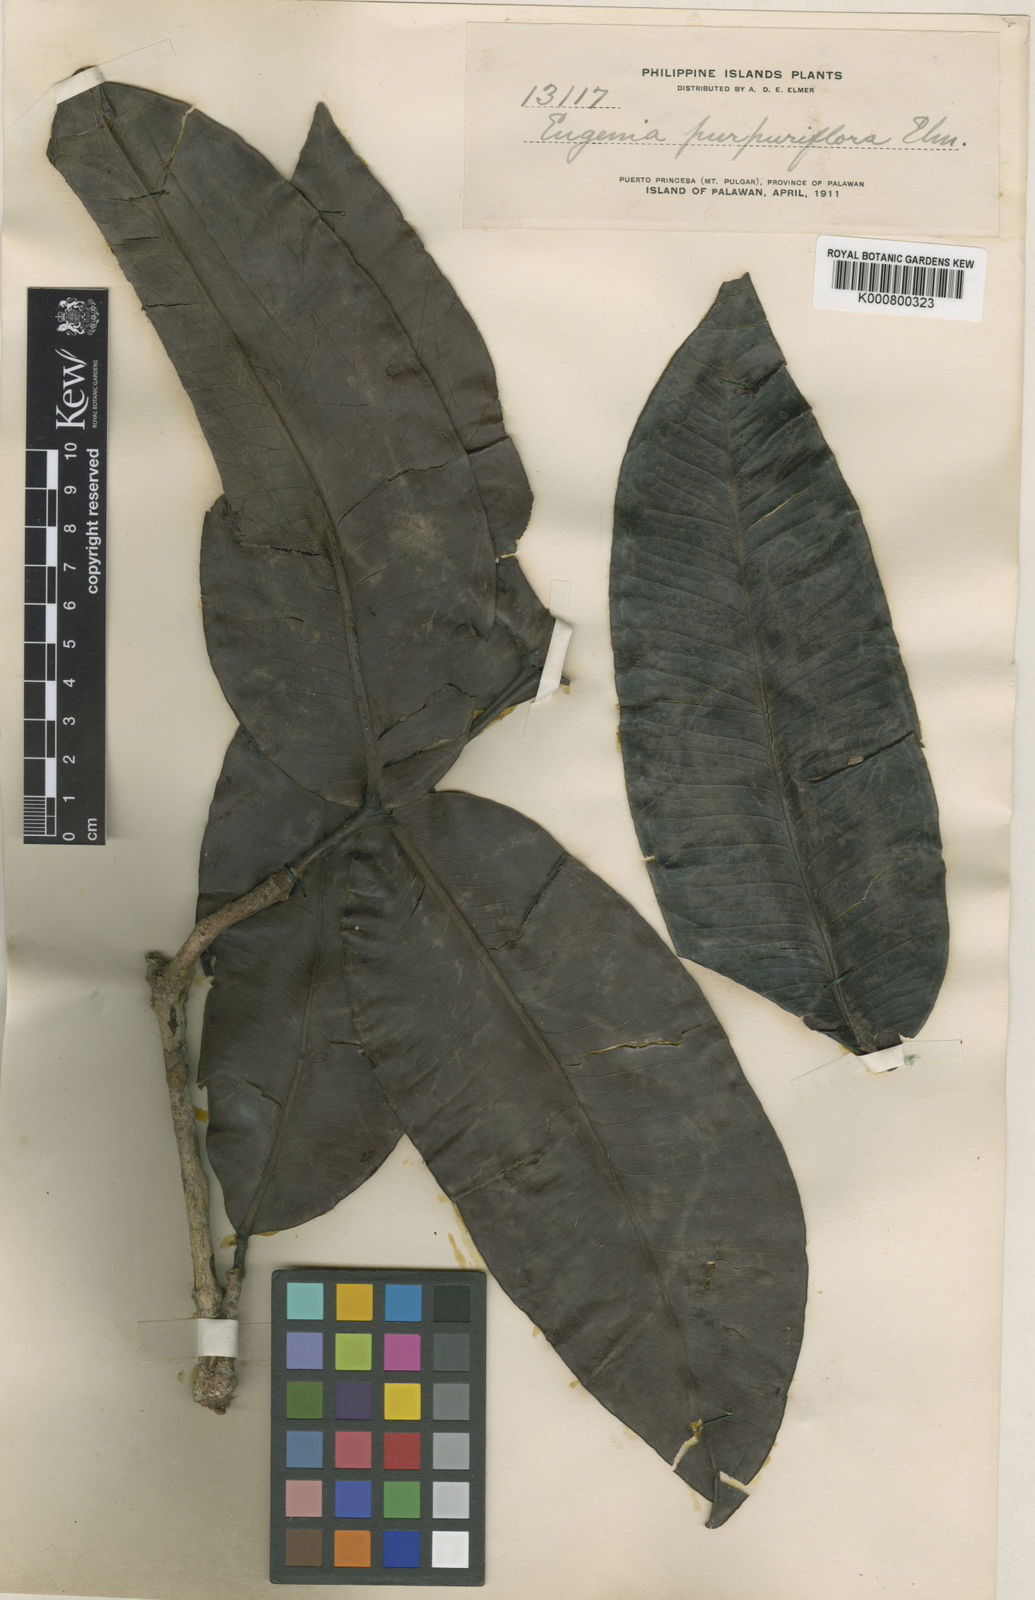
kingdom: Plantae
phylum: Tracheophyta
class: Magnoliopsida
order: Myrtales
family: Myrtaceae
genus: Syzygium
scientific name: Syzygium purpuriflorum
